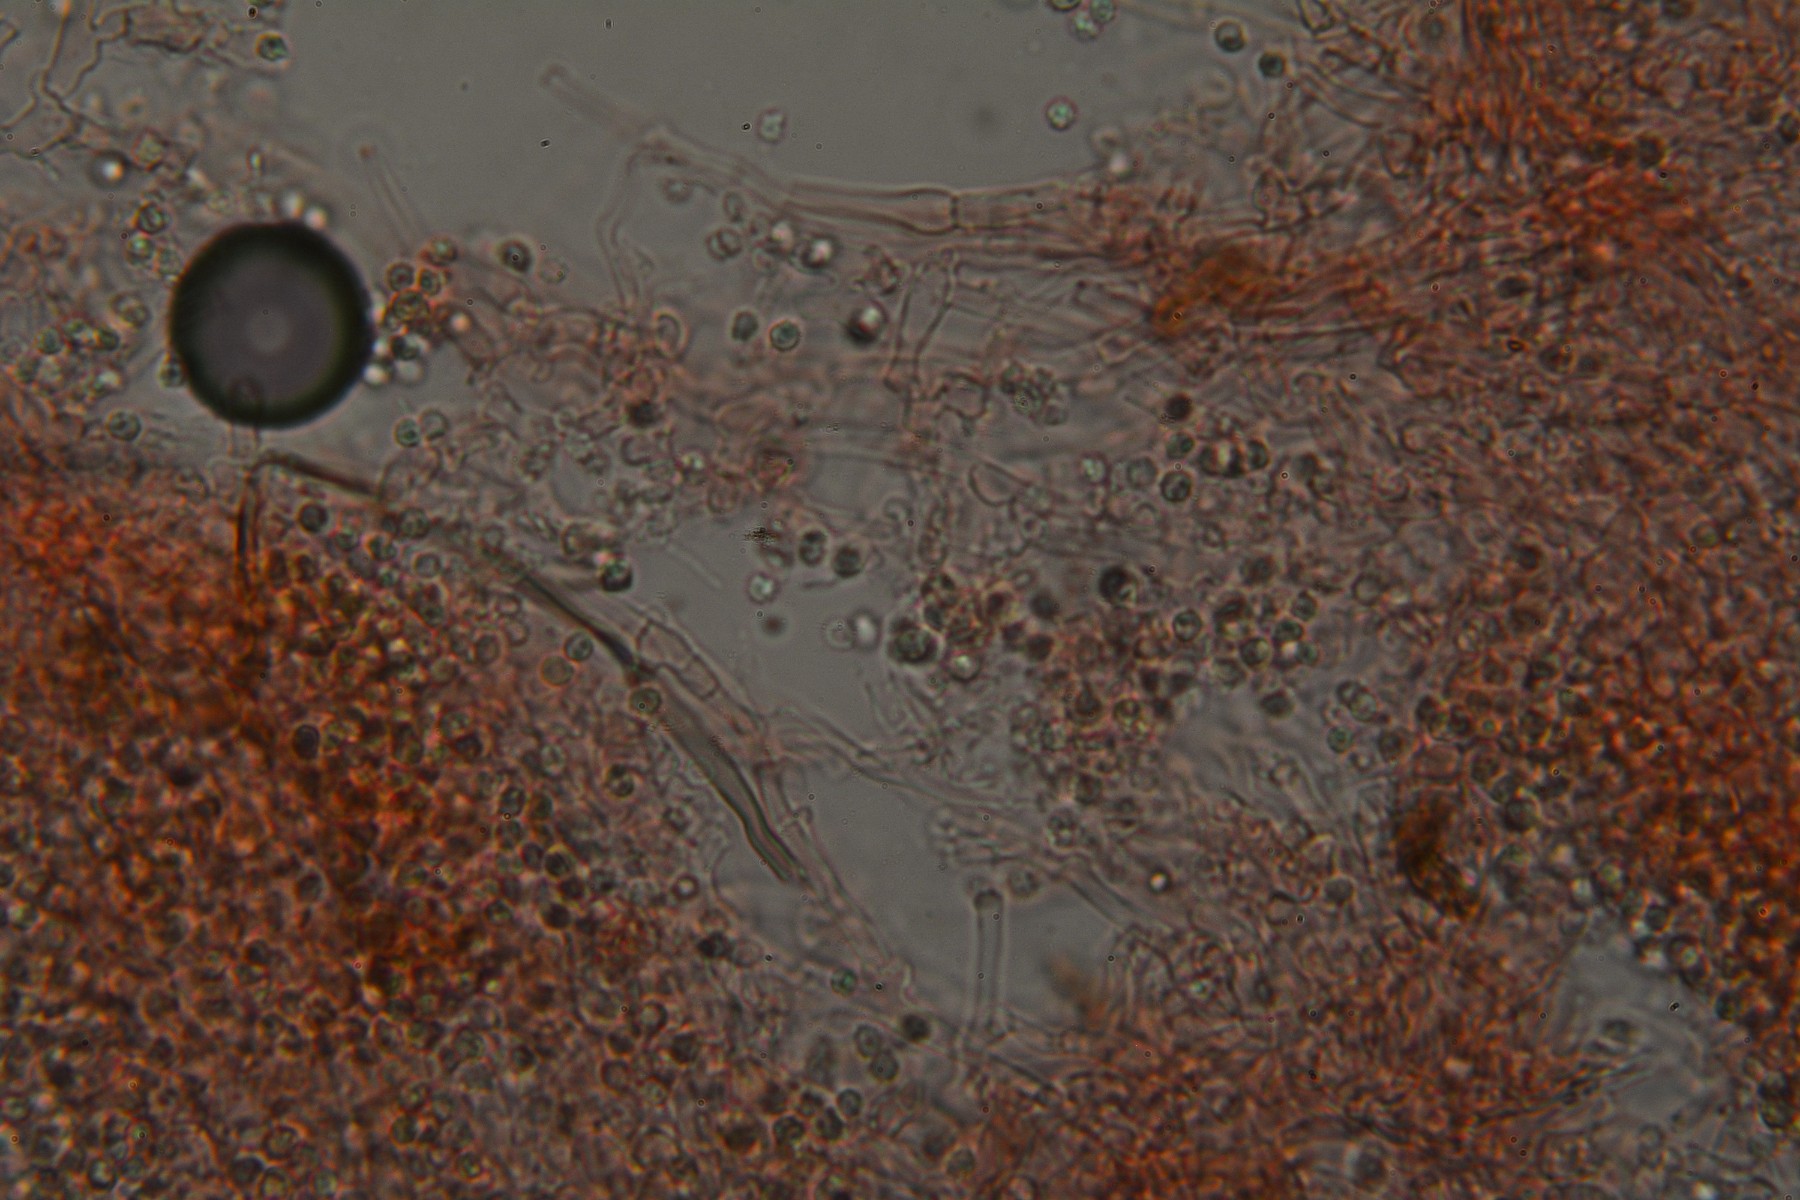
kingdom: Fungi
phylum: Basidiomycota
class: Agaricomycetes
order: Trechisporales
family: Sistotremataceae
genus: Trechispora
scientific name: Trechispora nivea
